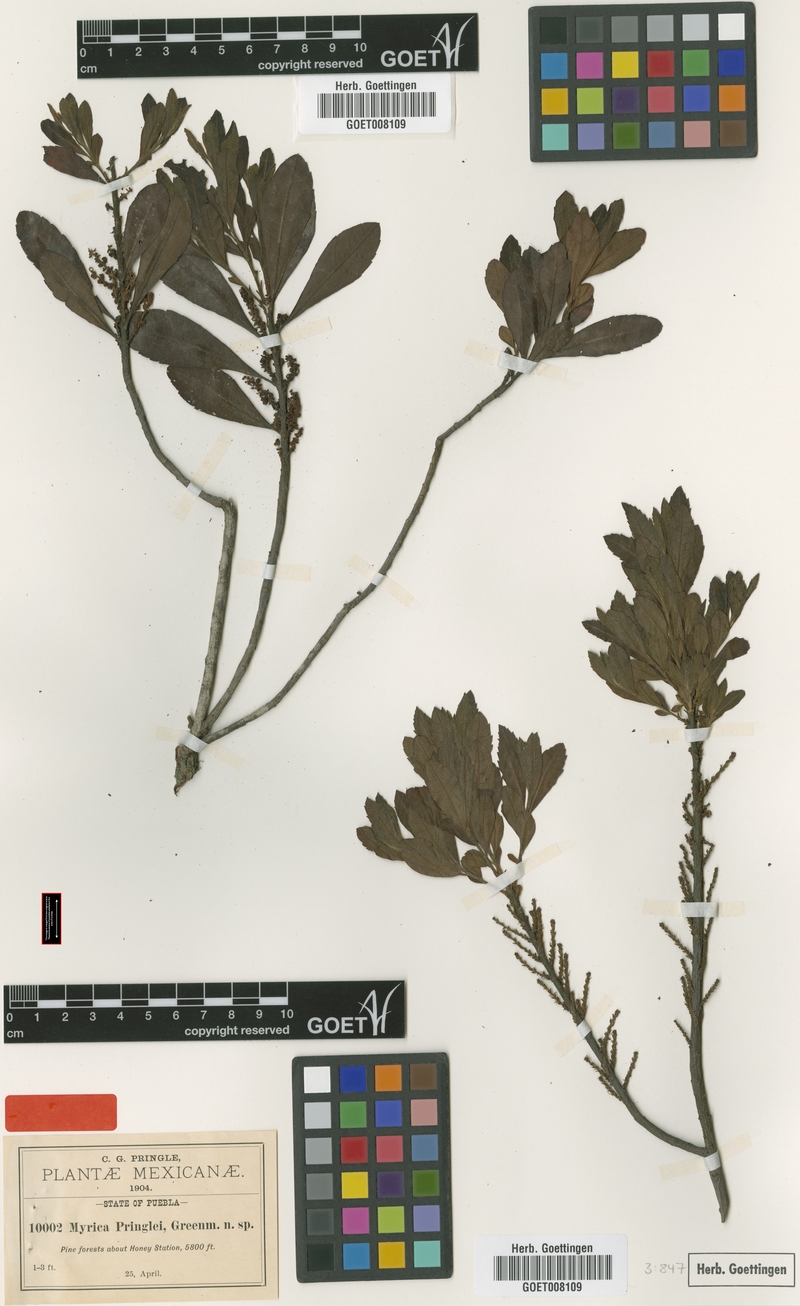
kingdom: Plantae
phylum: Tracheophyta
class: Magnoliopsida
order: Fagales
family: Myricaceae
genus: Morella
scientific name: Morella pringlei
